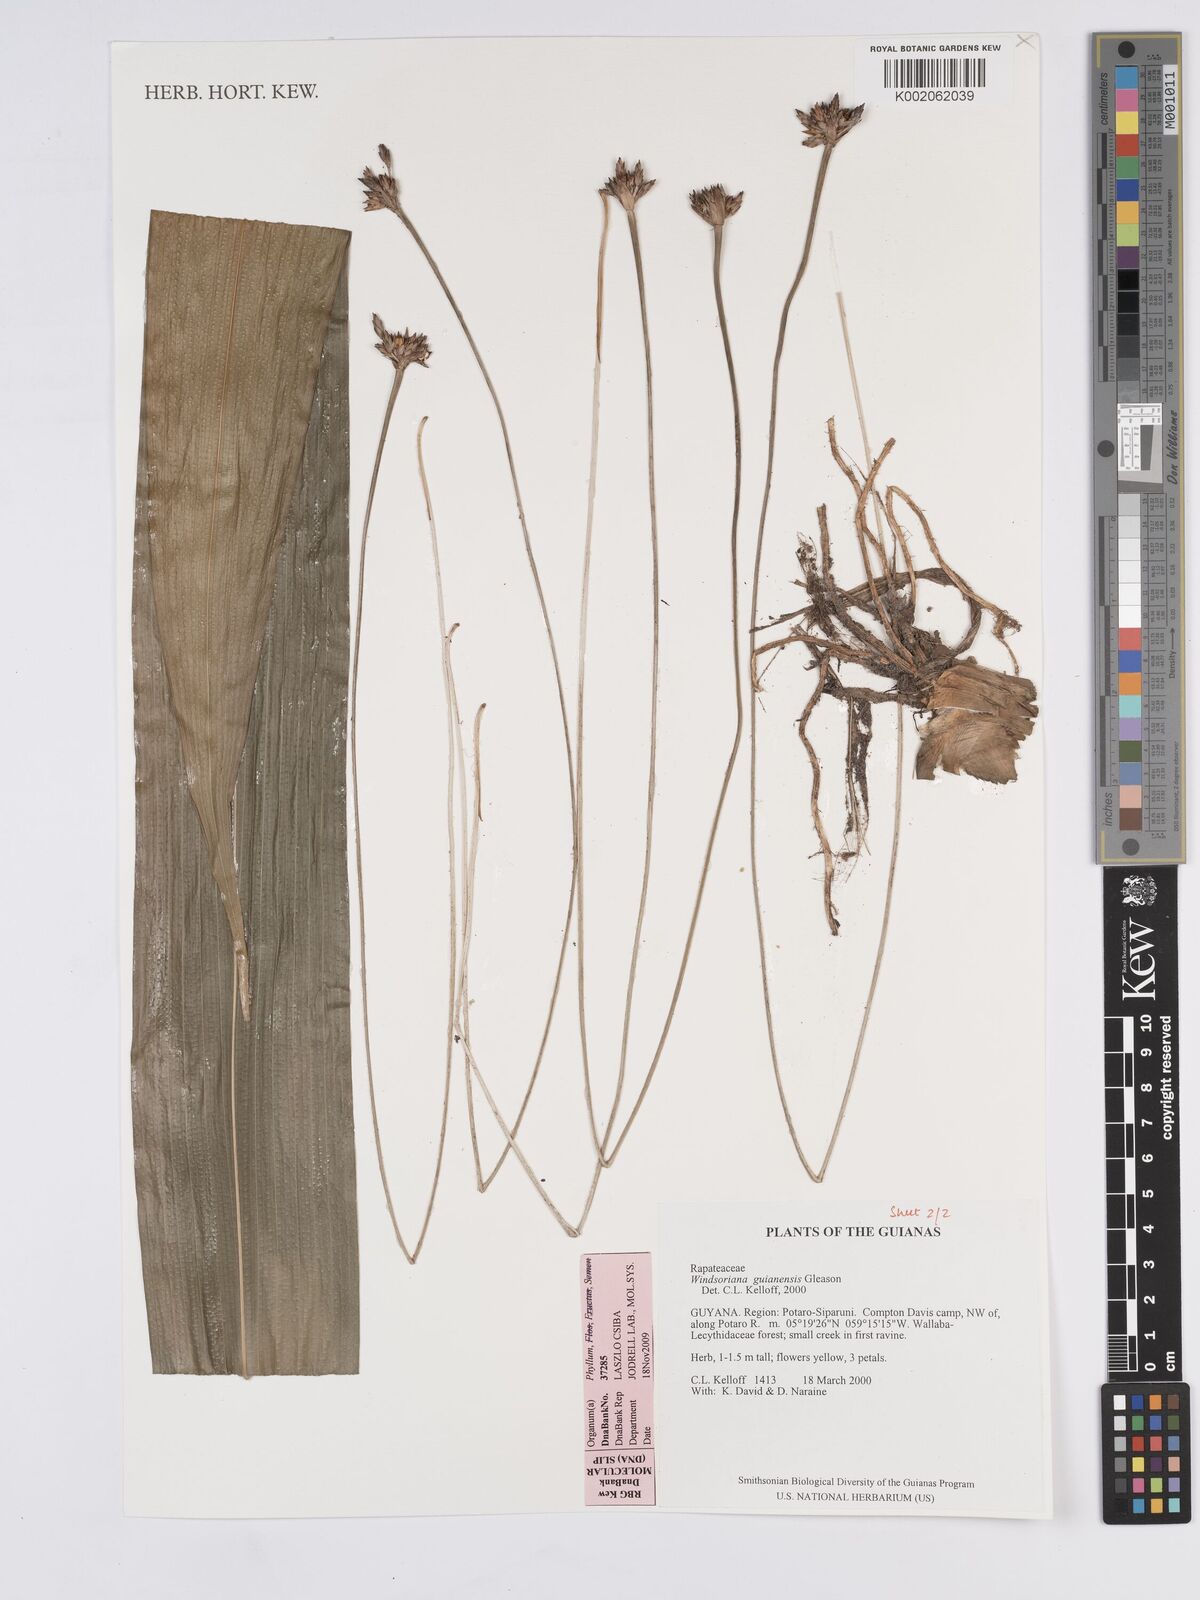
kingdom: Plantae
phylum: Tracheophyta
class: Liliopsida
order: Poales
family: Rapateaceae
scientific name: Rapateaceae
